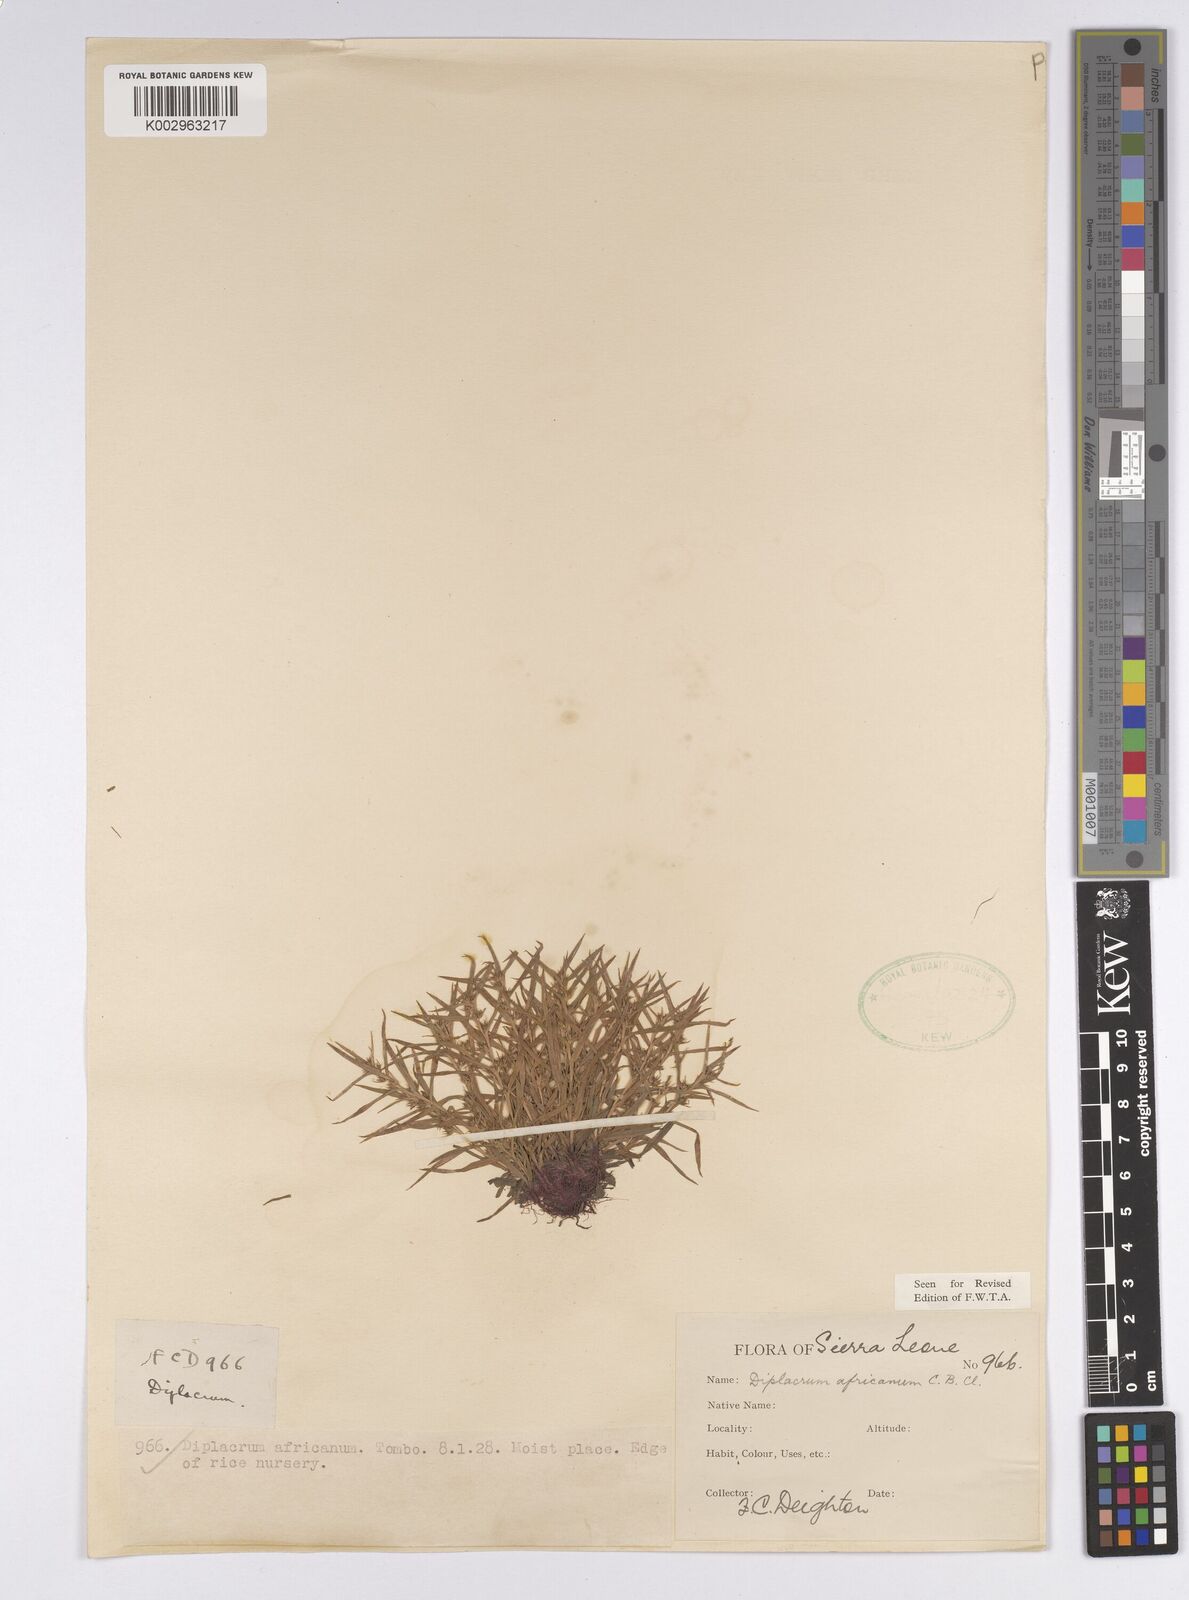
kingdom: Plantae
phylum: Tracheophyta
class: Liliopsida
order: Poales
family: Cyperaceae
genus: Diplacrum
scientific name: Diplacrum africanum
